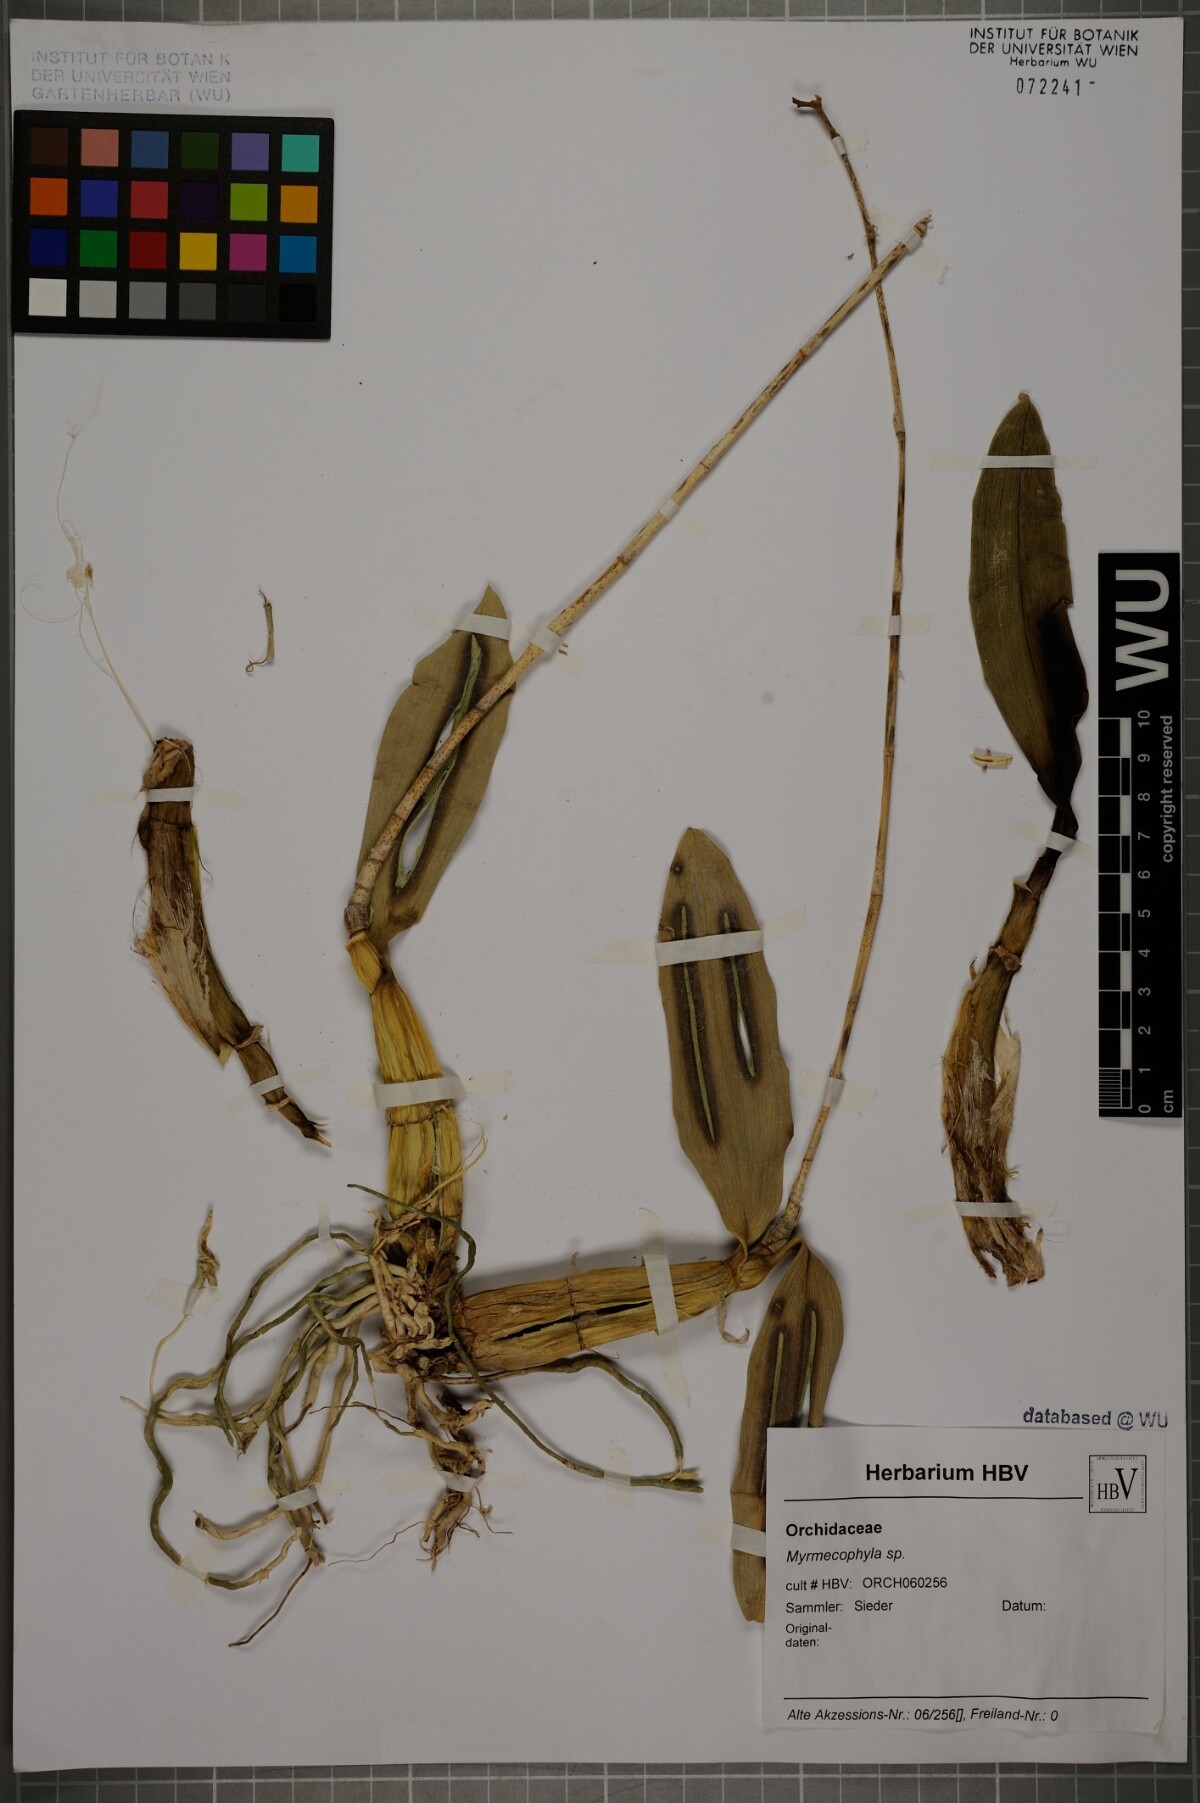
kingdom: Plantae
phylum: Tracheophyta
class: Liliopsida
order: Asparagales
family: Orchidaceae
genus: Myrmecophila
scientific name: Myrmecophila
